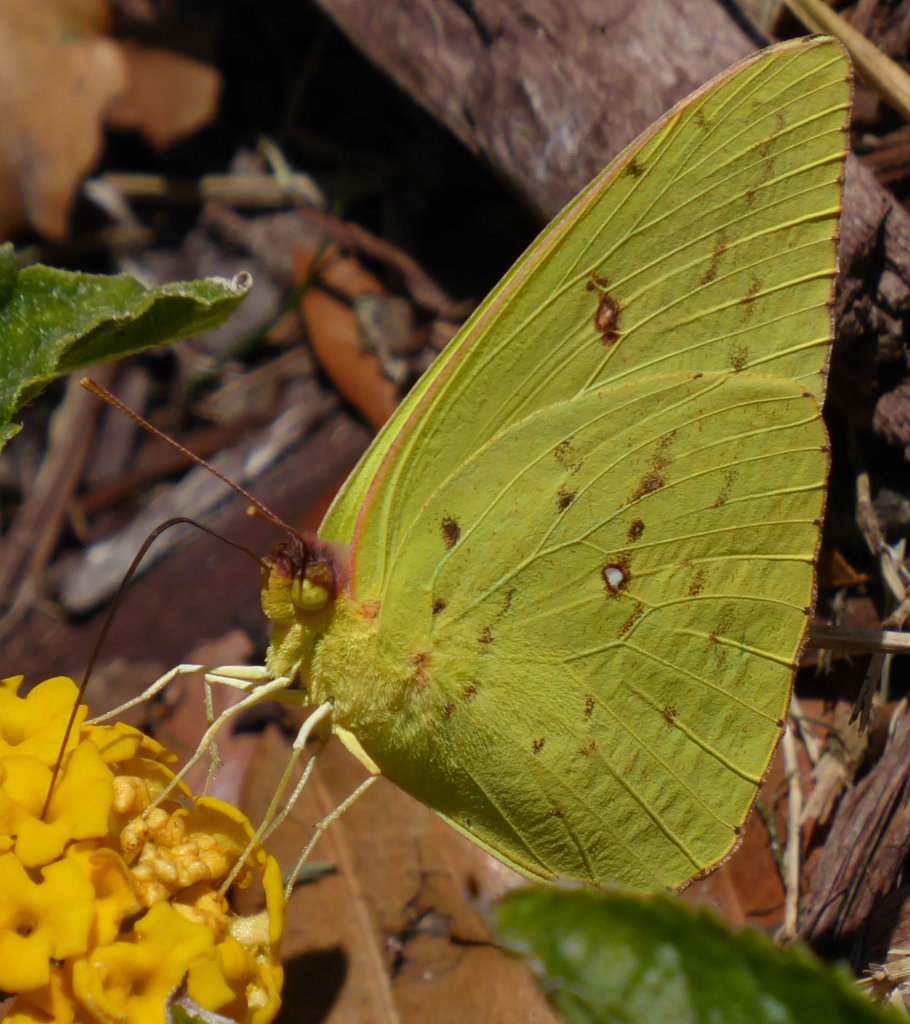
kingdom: Animalia
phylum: Arthropoda
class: Insecta
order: Lepidoptera
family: Pieridae
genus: Phoebis
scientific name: Phoebis sennae
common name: Cloudless Sulphur
